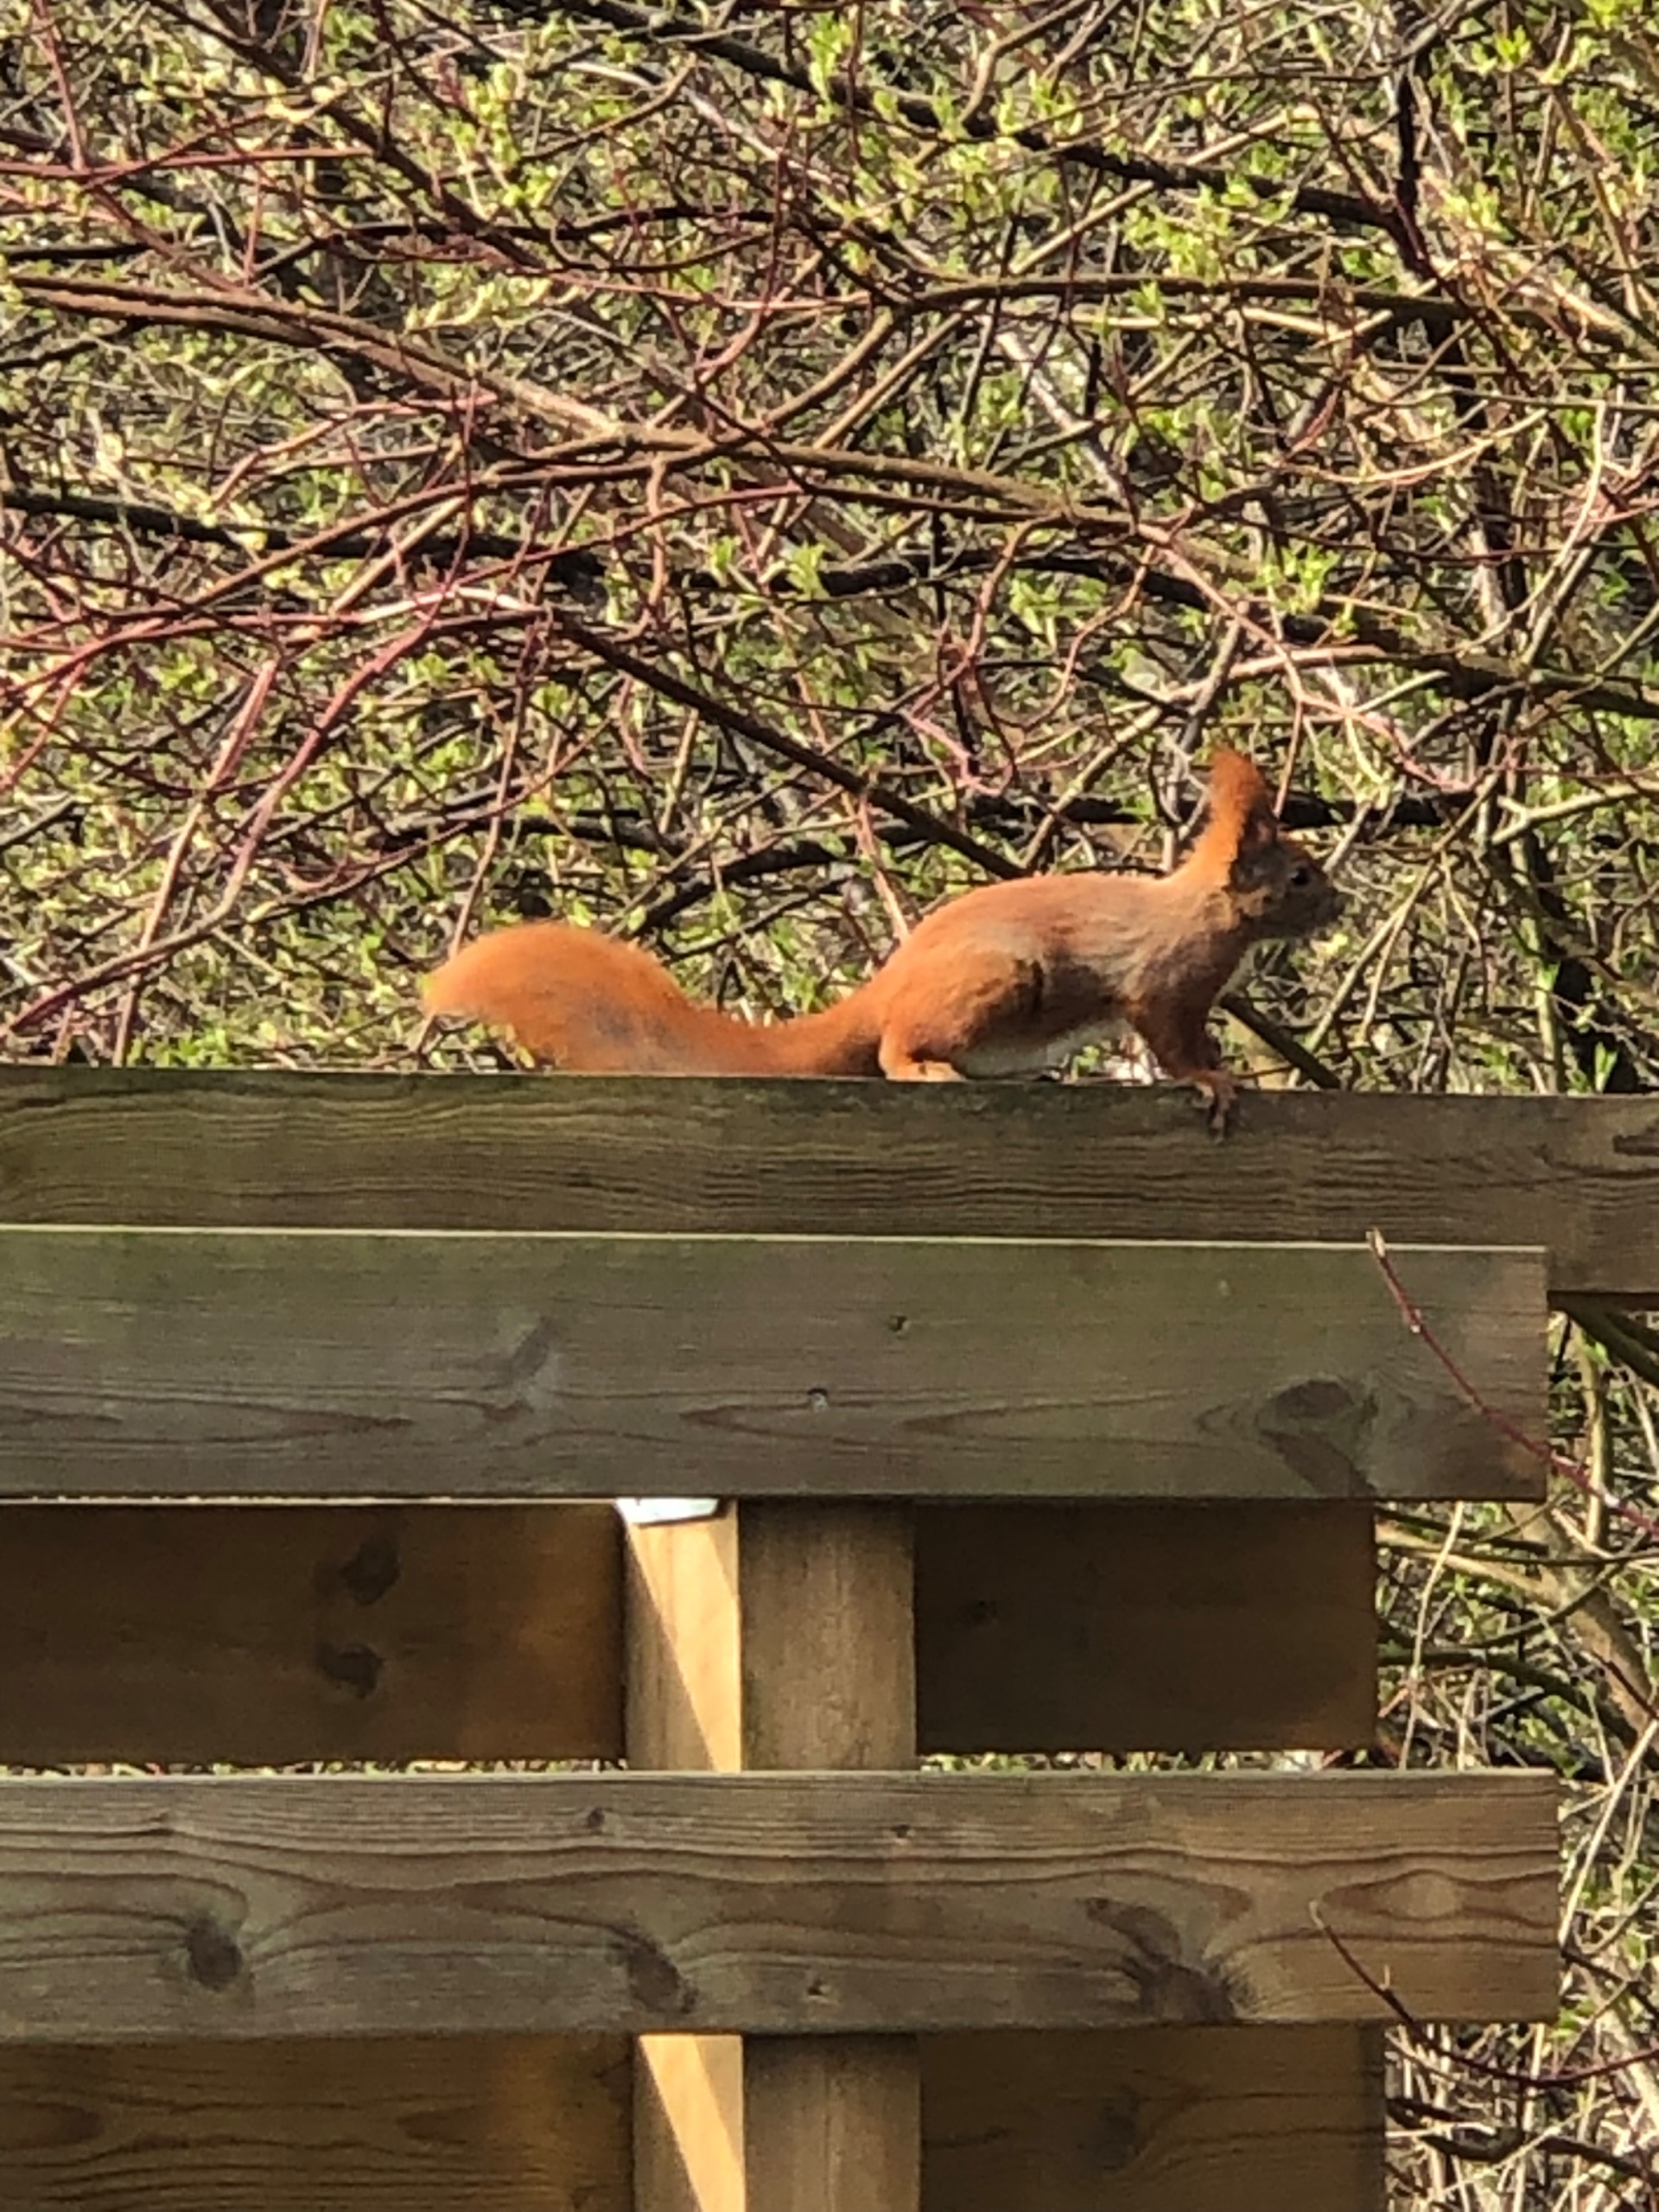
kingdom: Animalia
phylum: Chordata
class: Mammalia
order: Rodentia
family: Sciuridae
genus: Sciurus
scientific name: Sciurus vulgaris
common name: Egern
